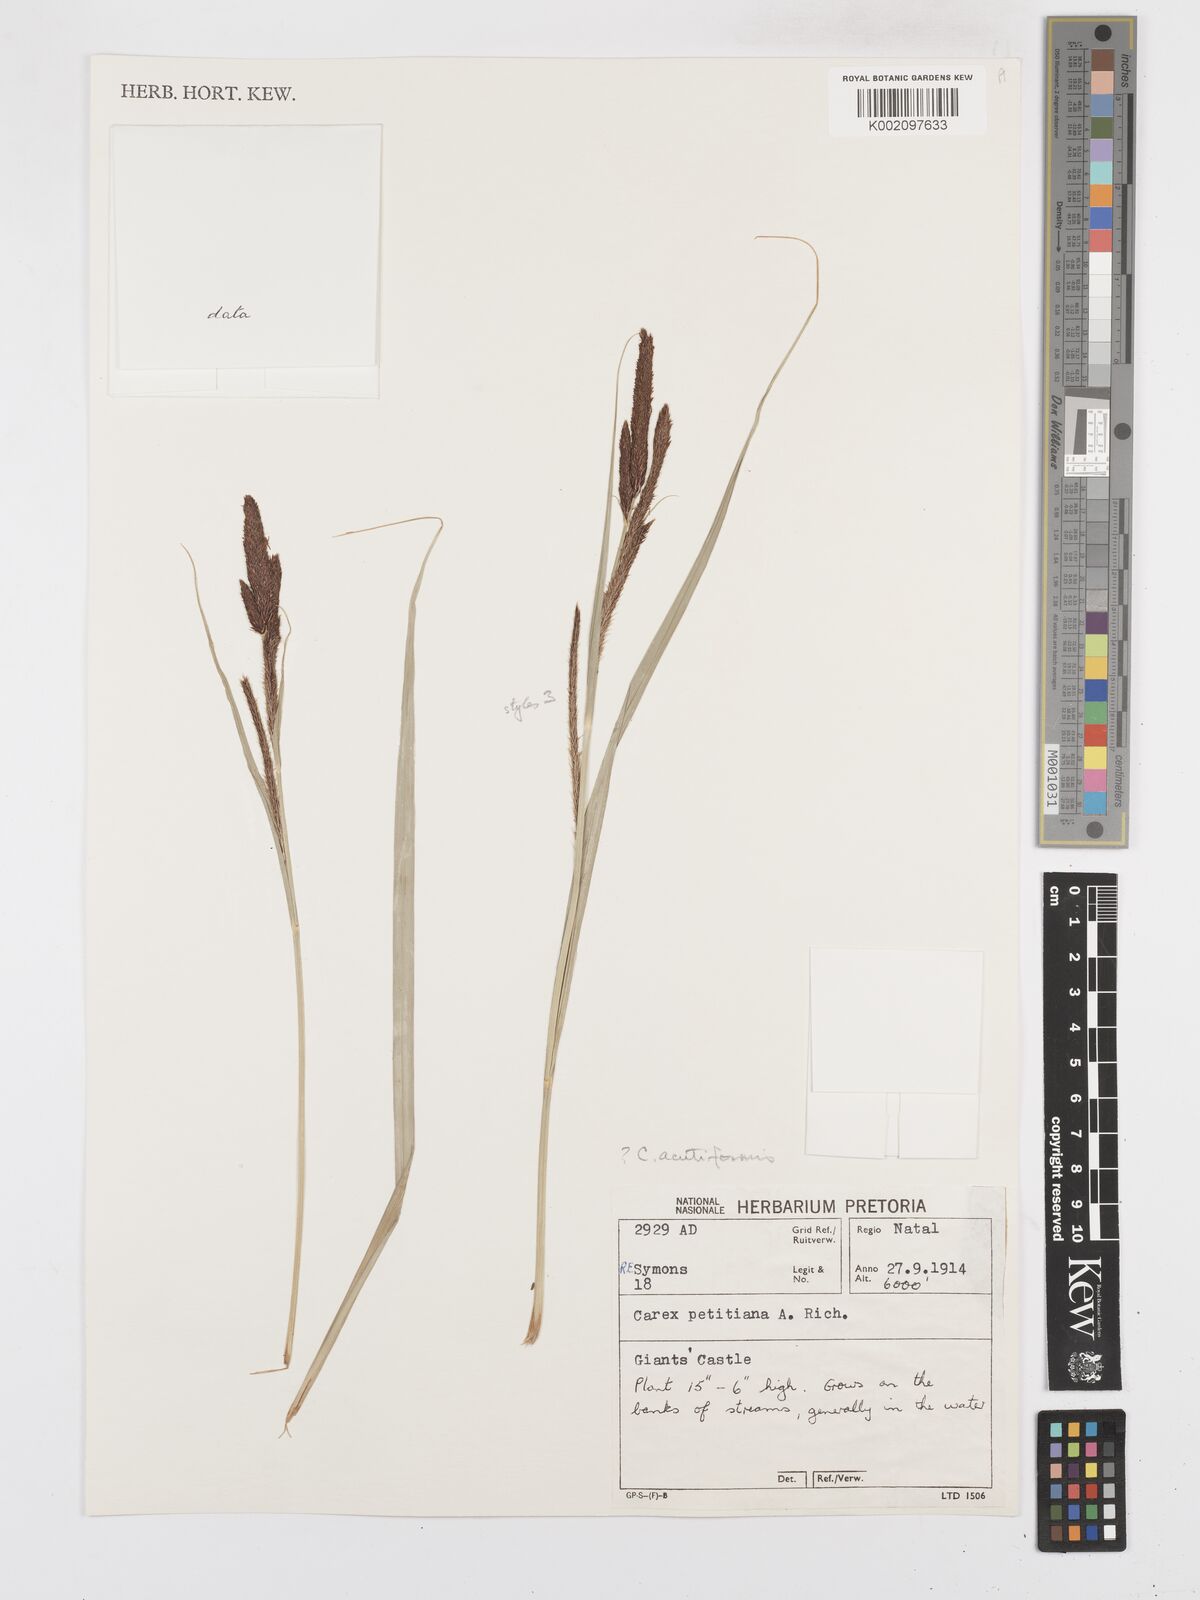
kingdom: Plantae
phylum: Tracheophyta
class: Liliopsida
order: Poales
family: Cyperaceae
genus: Carex
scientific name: Carex acutiformis
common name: Lesser pond-sedge
